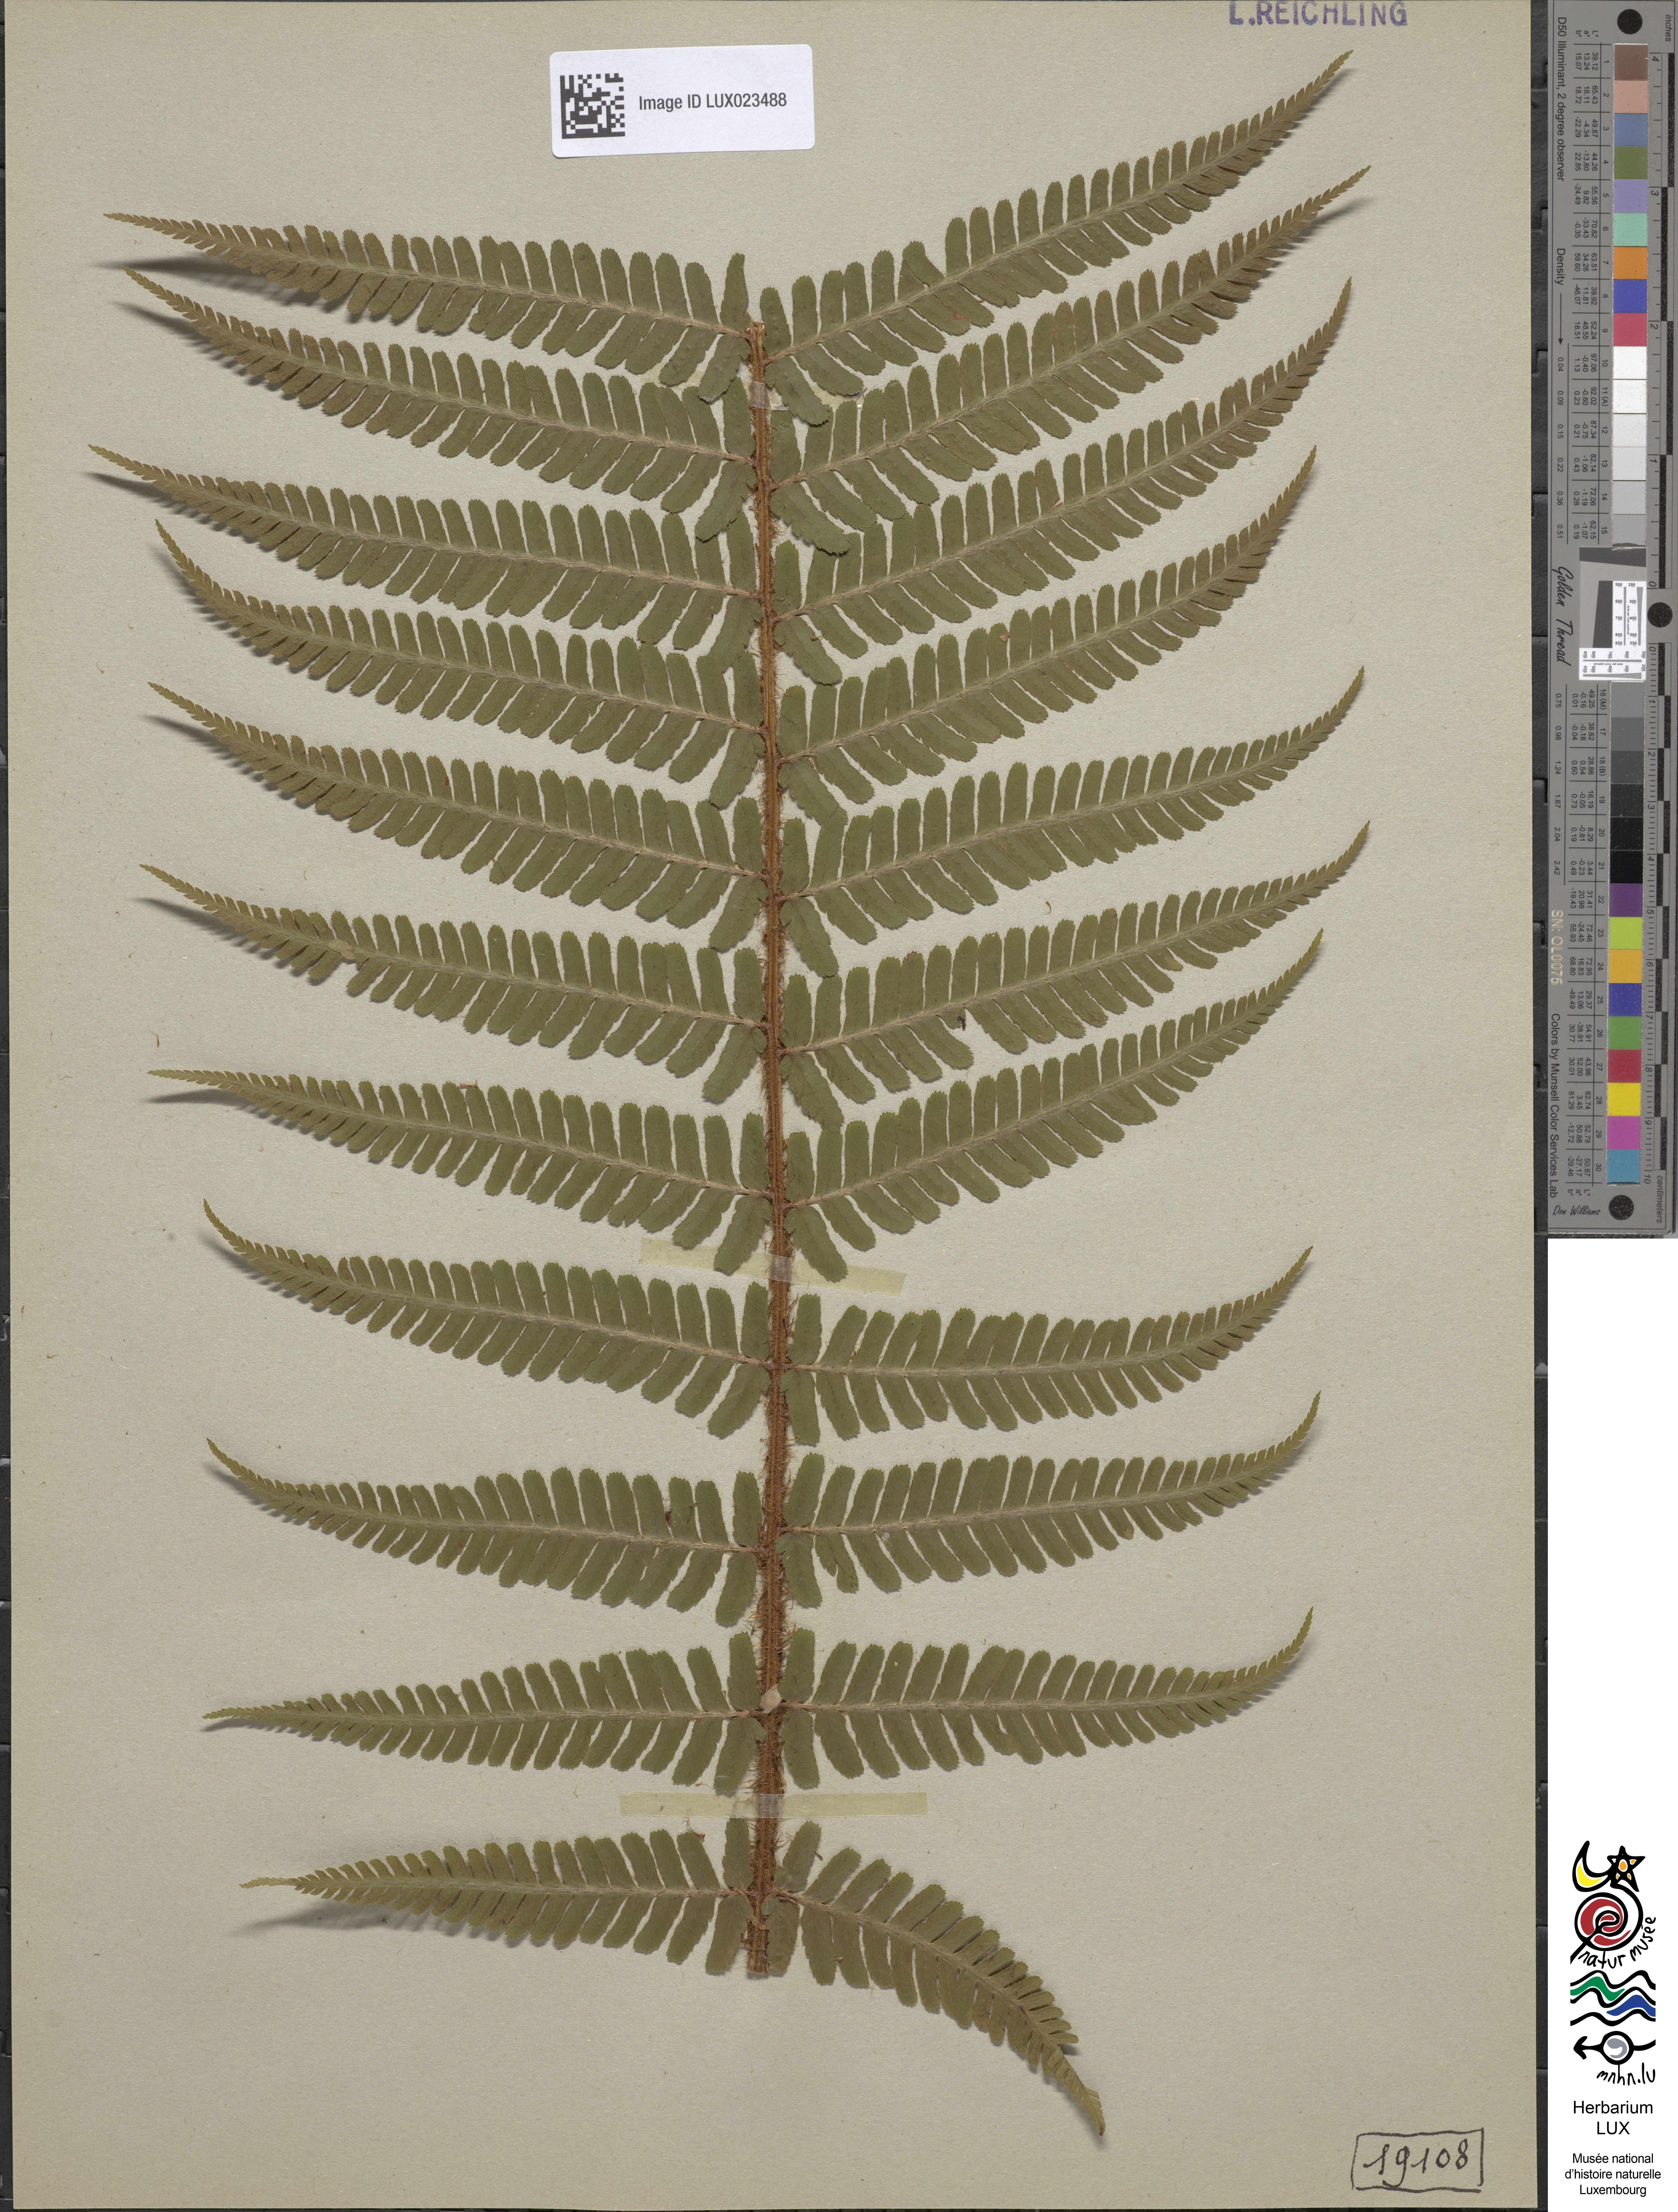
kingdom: Plantae
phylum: Tracheophyta
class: Polypodiopsida
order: Polypodiales
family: Dryopteridaceae
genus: Dryopteris
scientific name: Dryopteris borreri
